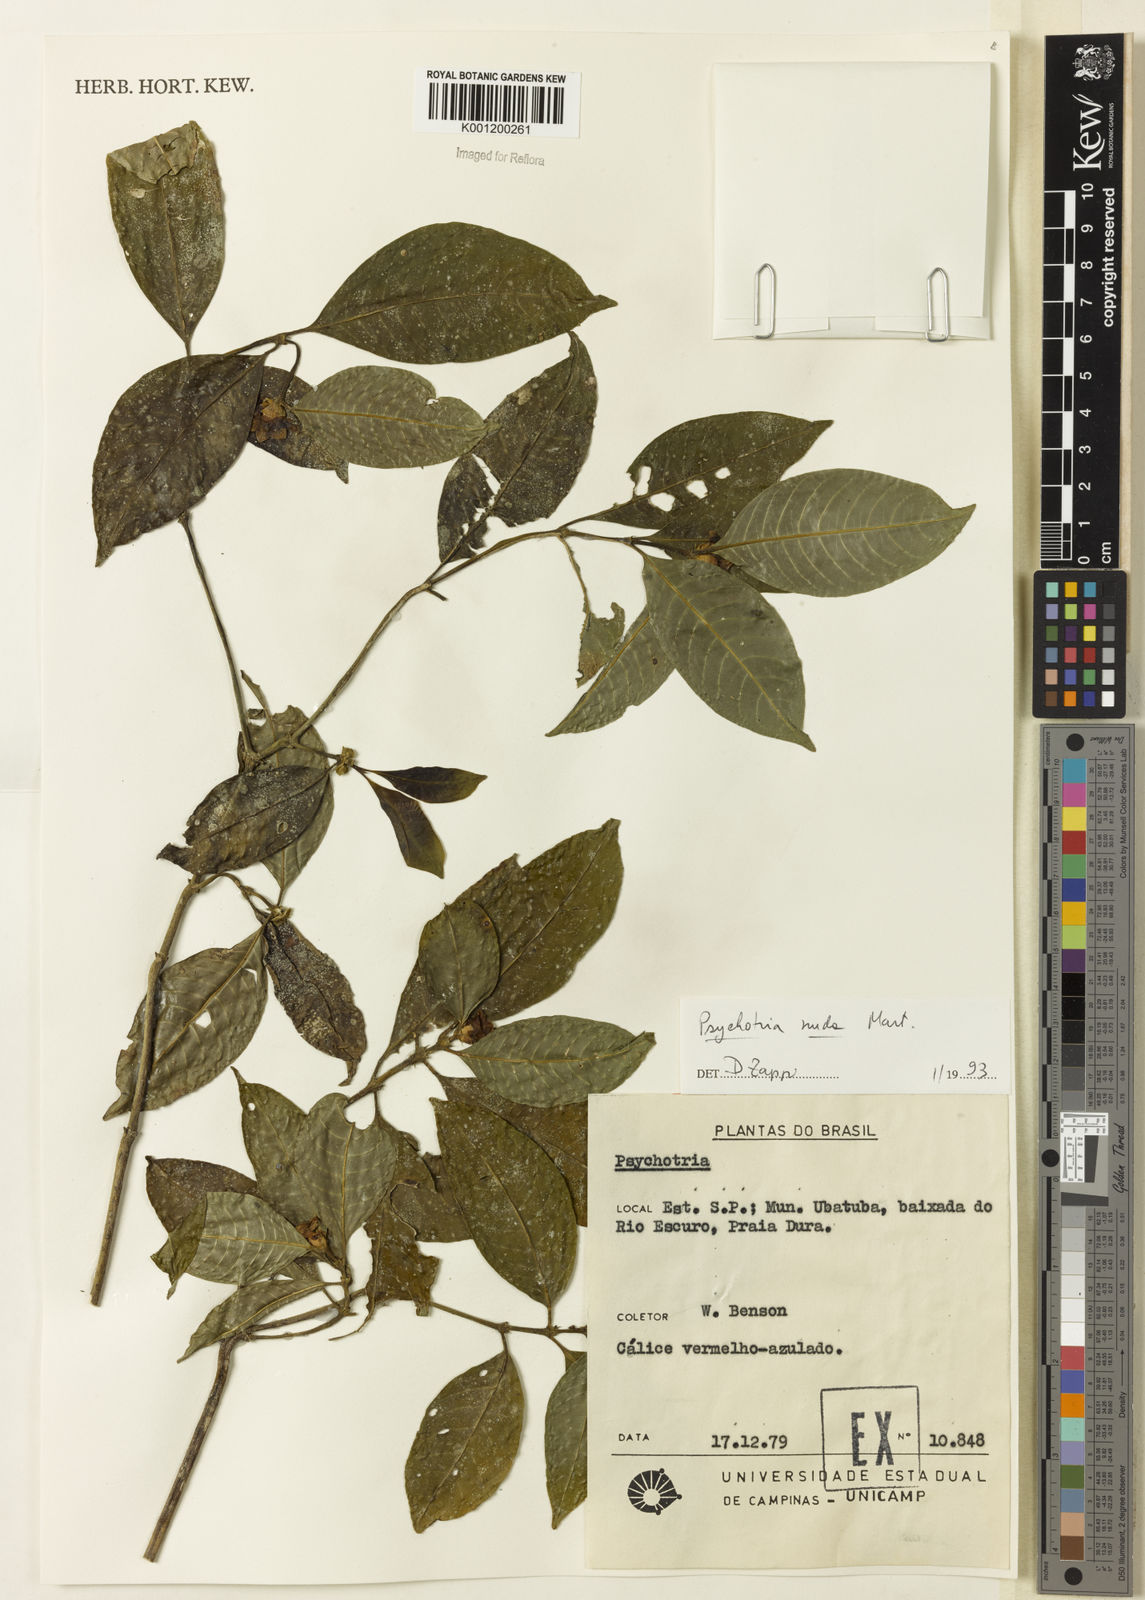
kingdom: Plantae
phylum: Tracheophyta
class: Magnoliopsida
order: Gentianales
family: Rubiaceae
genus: Psychotria
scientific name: Psychotria nuda
